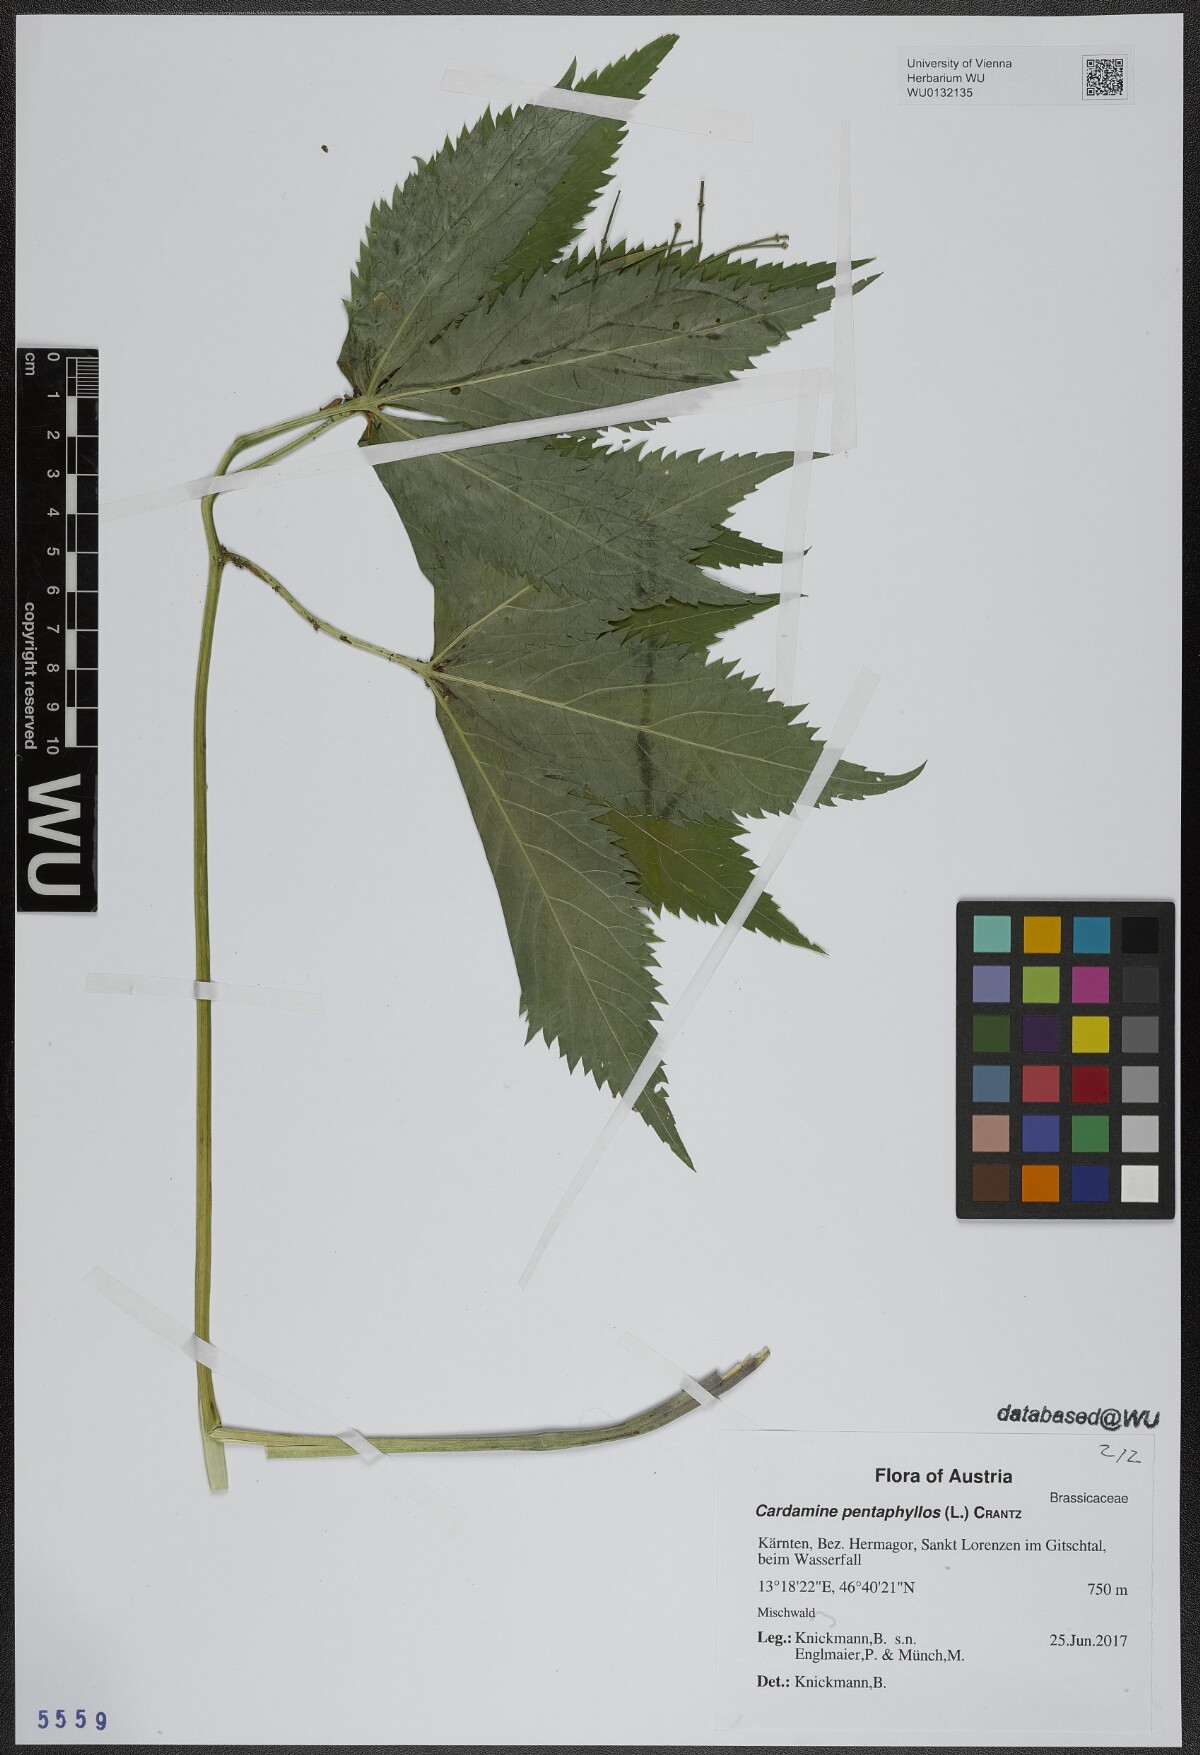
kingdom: Plantae
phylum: Tracheophyta
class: Magnoliopsida
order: Brassicales
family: Brassicaceae
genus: Cardamine
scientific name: Cardamine pentaphyllos
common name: Five-leaflet bitter-cress
